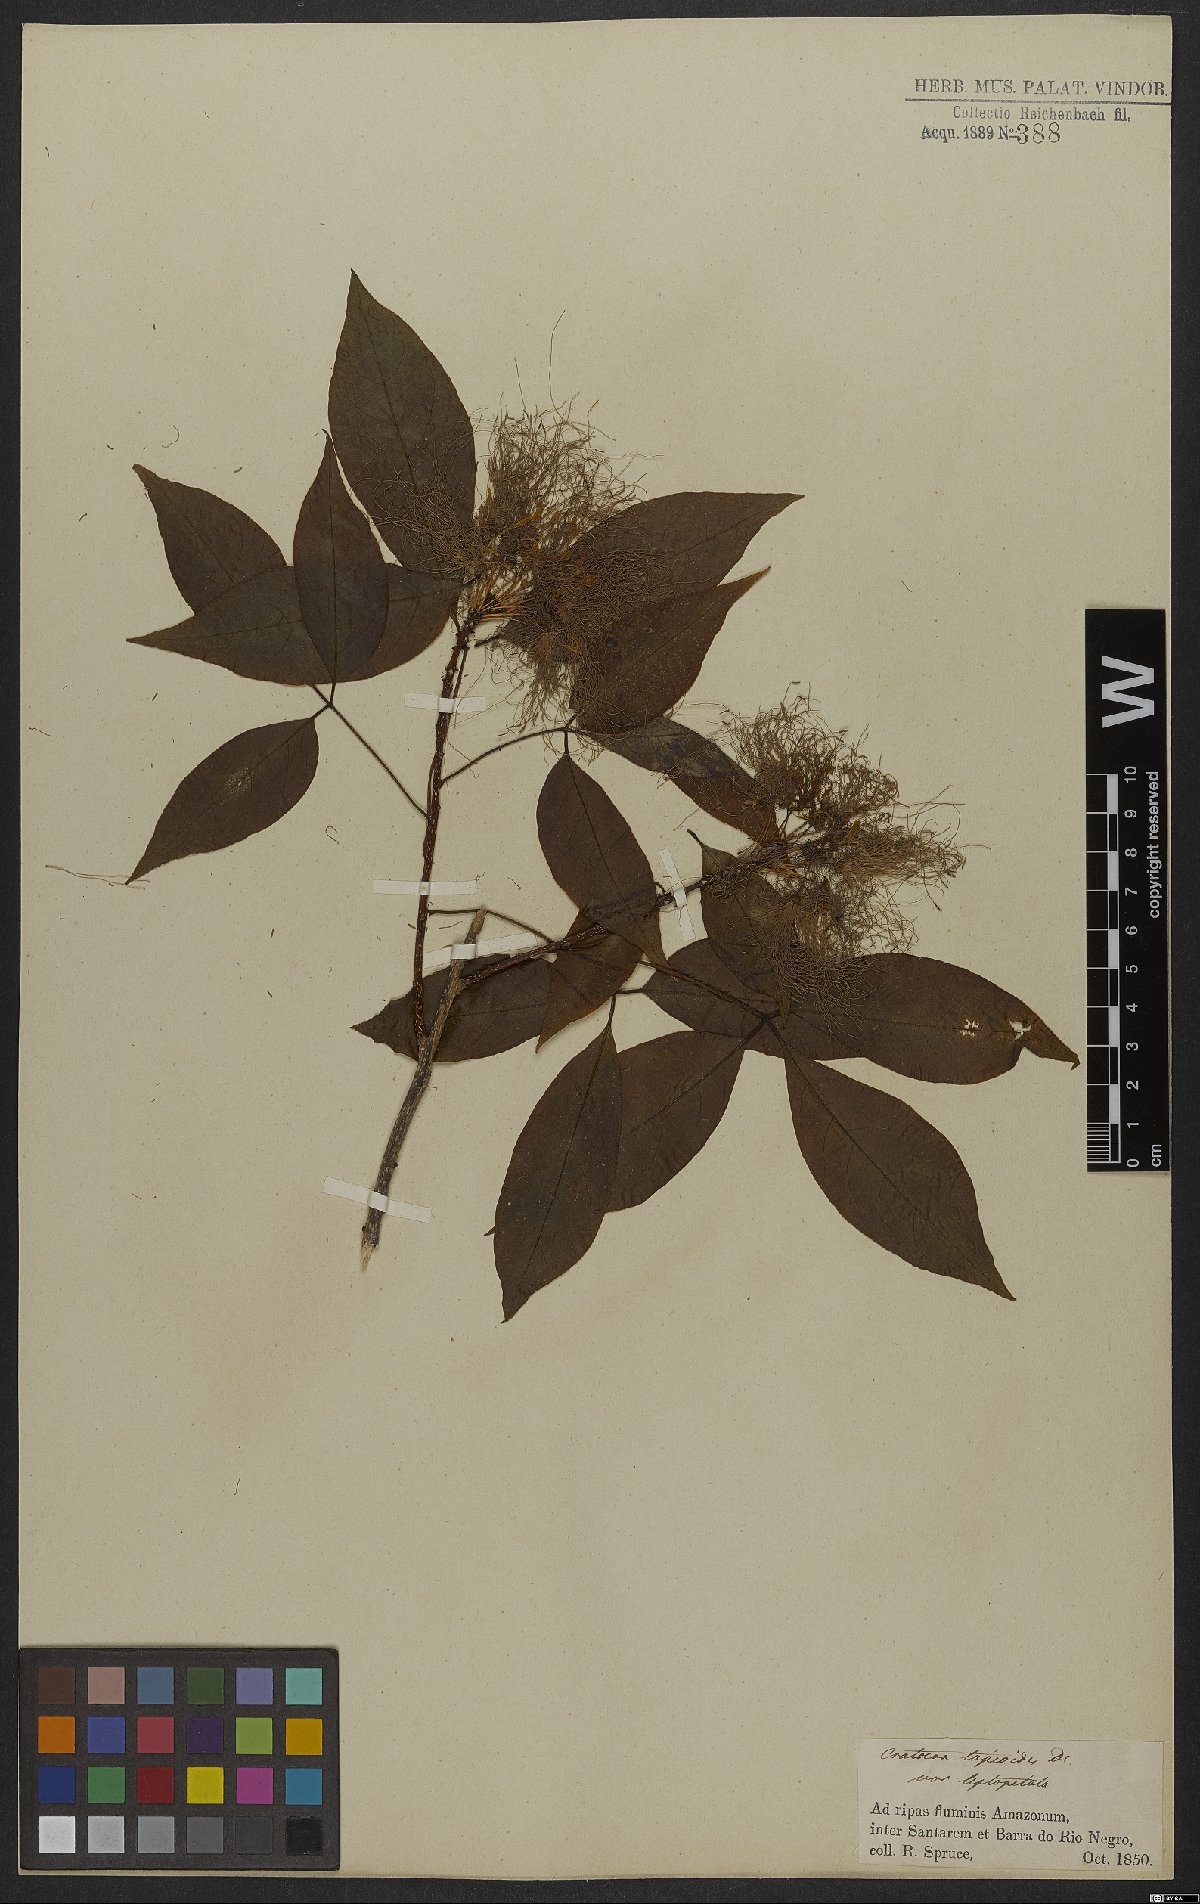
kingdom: Plantae
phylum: Tracheophyta
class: Magnoliopsida
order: Brassicales
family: Capparaceae
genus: Crateva
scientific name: Crateva tapia
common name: Garlic-pear
